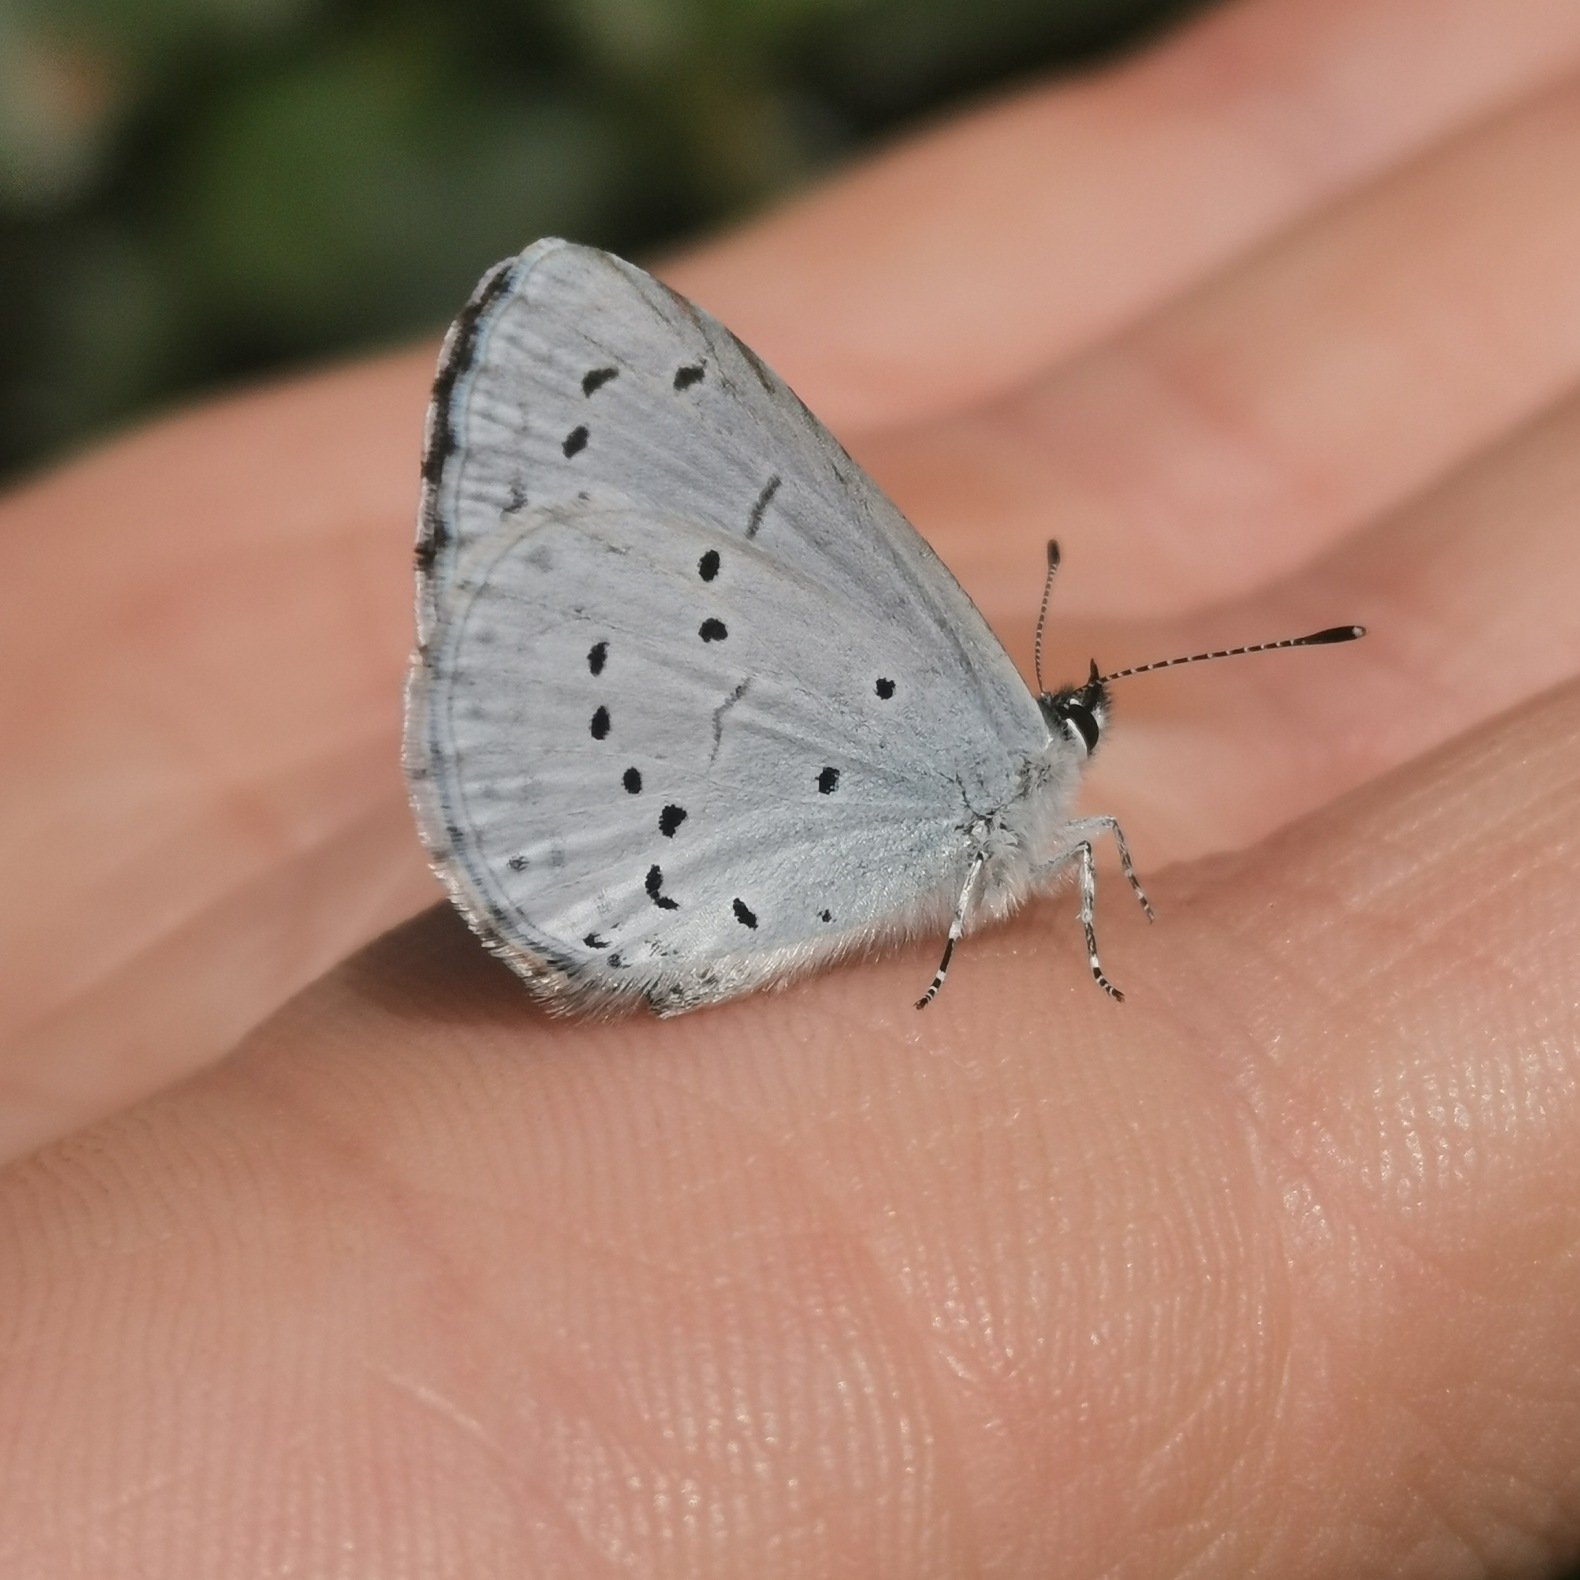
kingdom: Animalia
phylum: Arthropoda
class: Insecta
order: Lepidoptera
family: Lycaenidae
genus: Celastrina
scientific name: Celastrina argiolus
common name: Skovblåfugl
